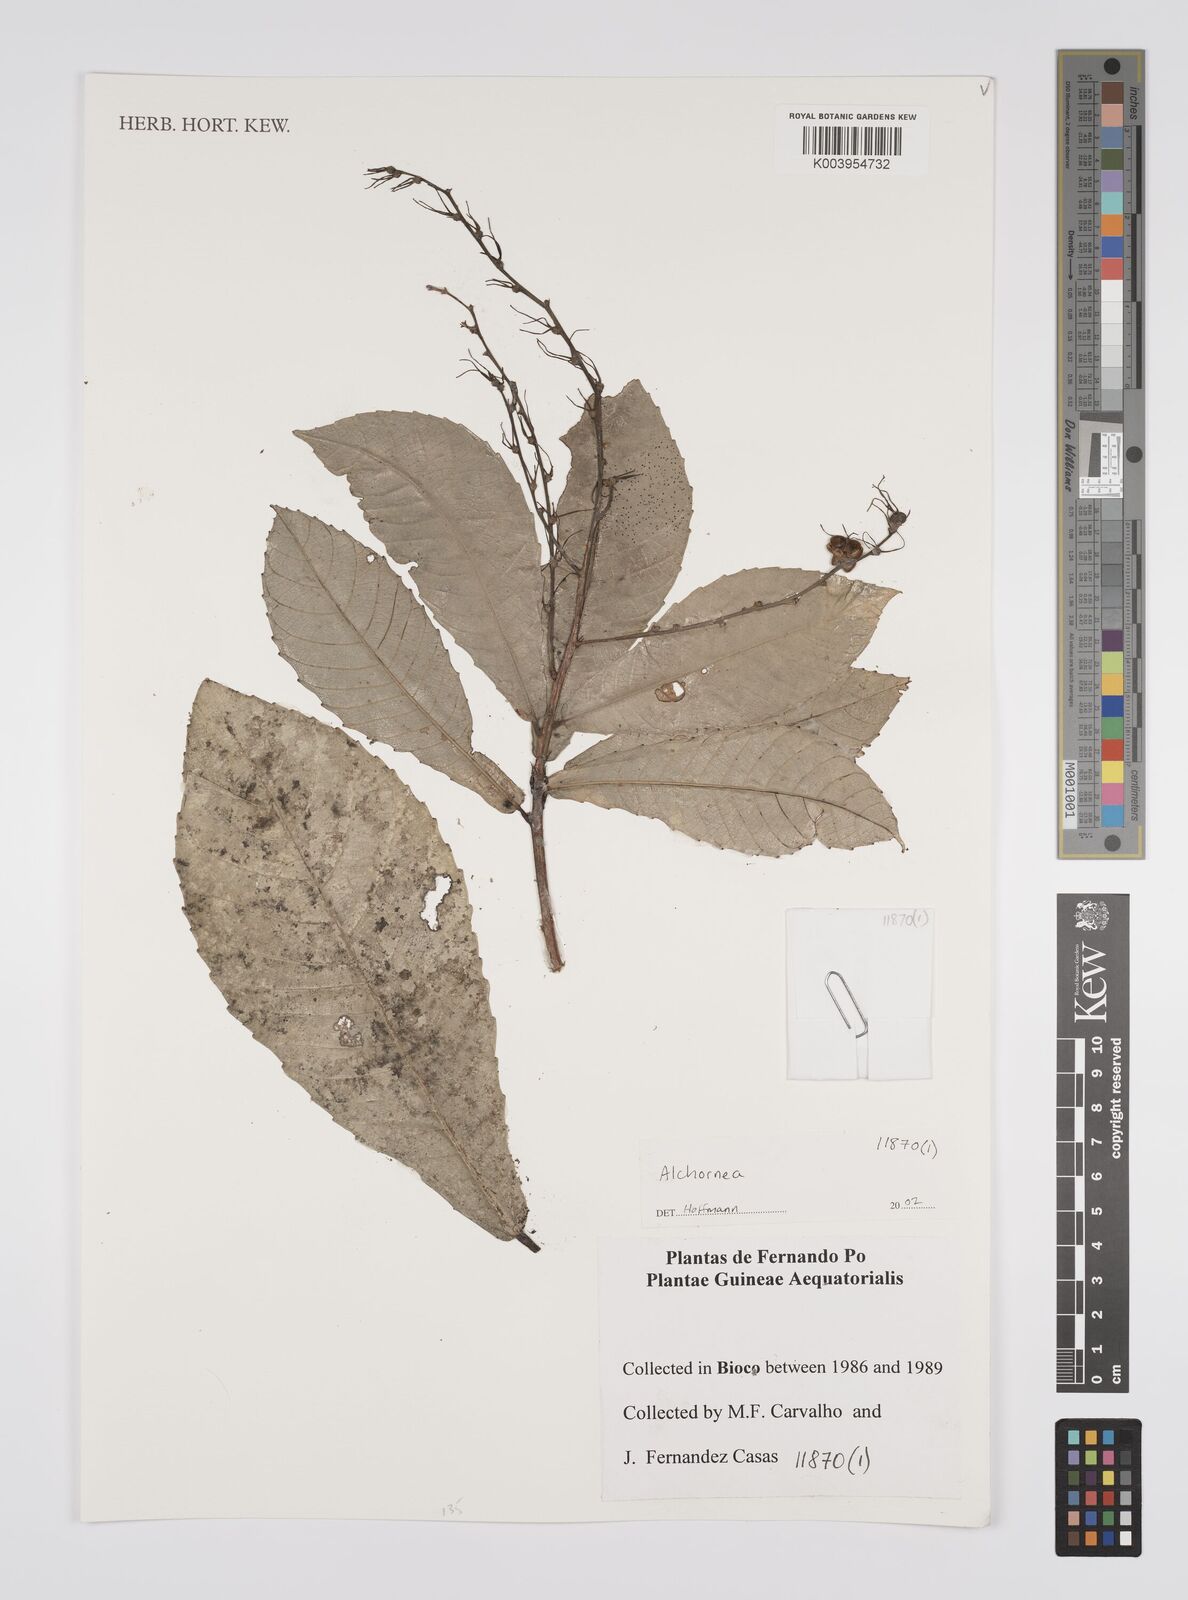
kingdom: Plantae
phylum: Tracheophyta
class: Magnoliopsida
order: Malpighiales
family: Euphorbiaceae
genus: Alchornea
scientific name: Alchornea
